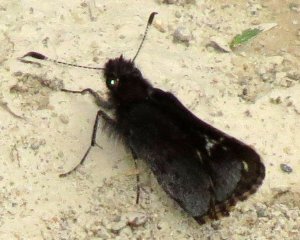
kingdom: Animalia
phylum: Arthropoda
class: Insecta
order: Lepidoptera
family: Hesperiidae
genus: Mastor
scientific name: Mastor vialis
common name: Common Roadside-Skipper
